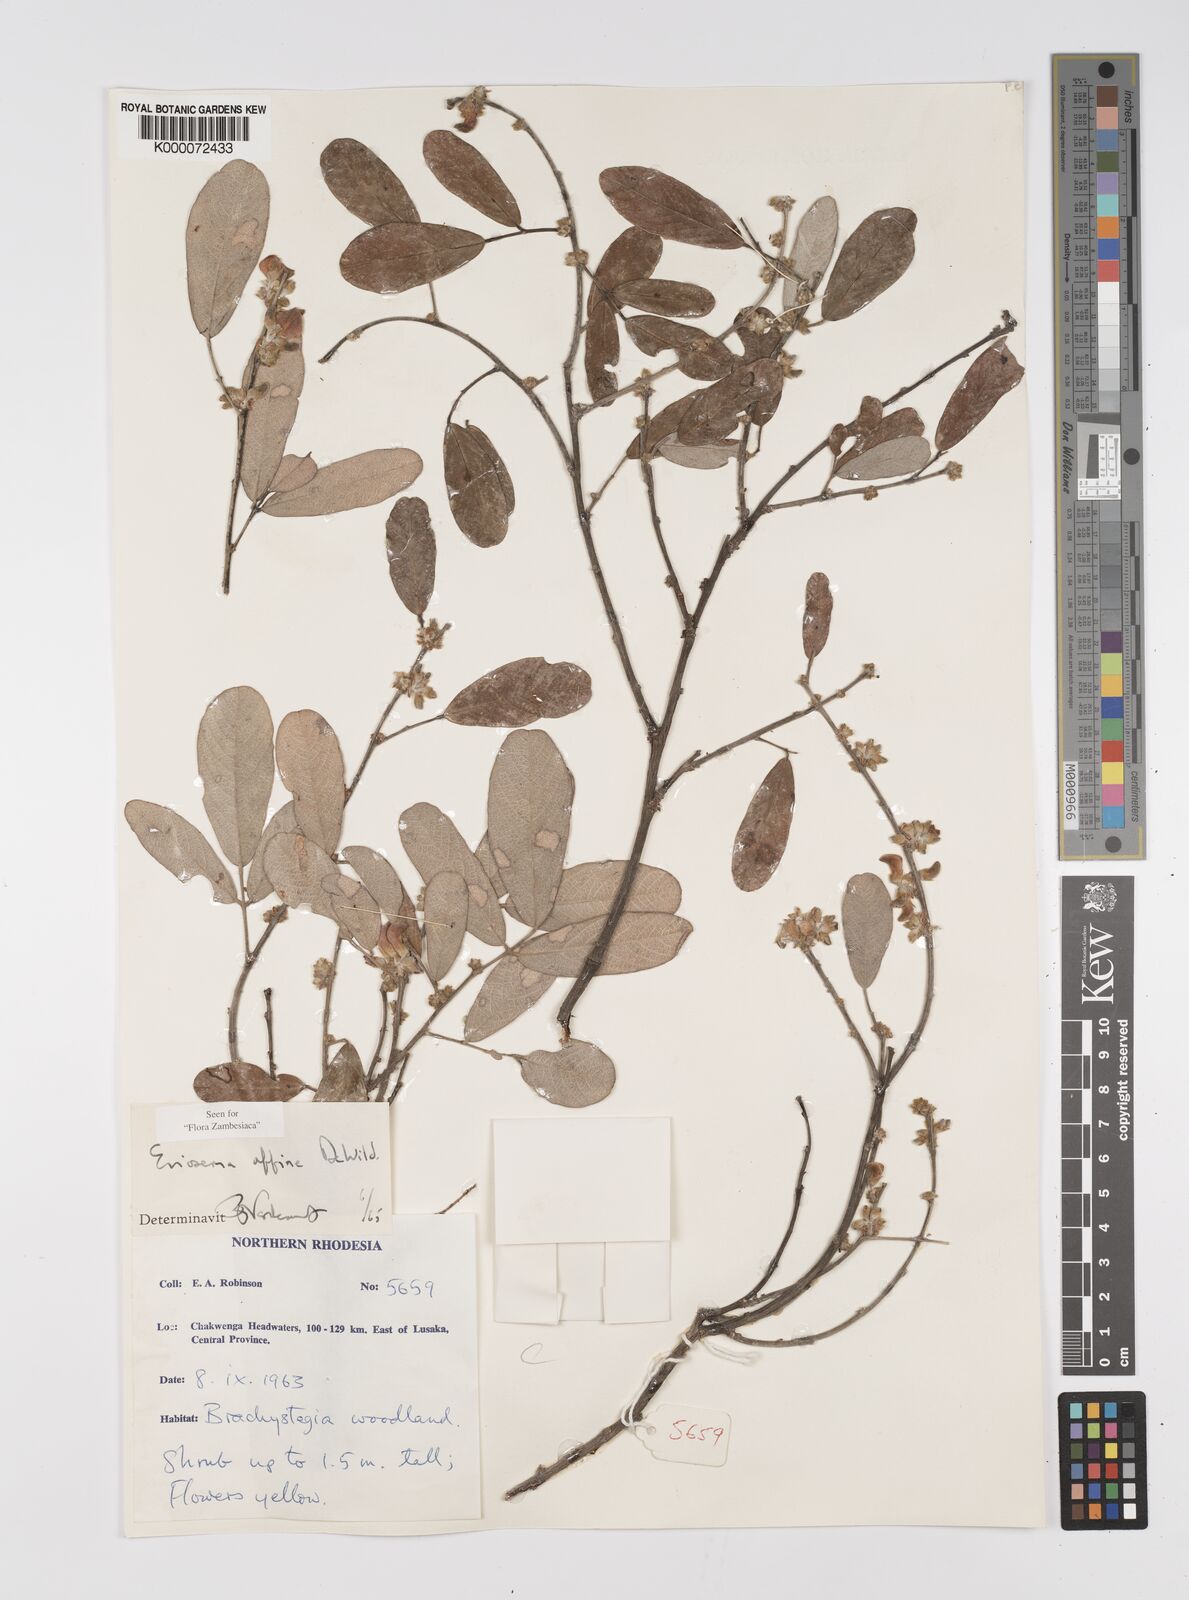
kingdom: Plantae
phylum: Tracheophyta
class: Magnoliopsida
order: Fabales
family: Fabaceae
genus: Eriosema
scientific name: Eriosema affine
